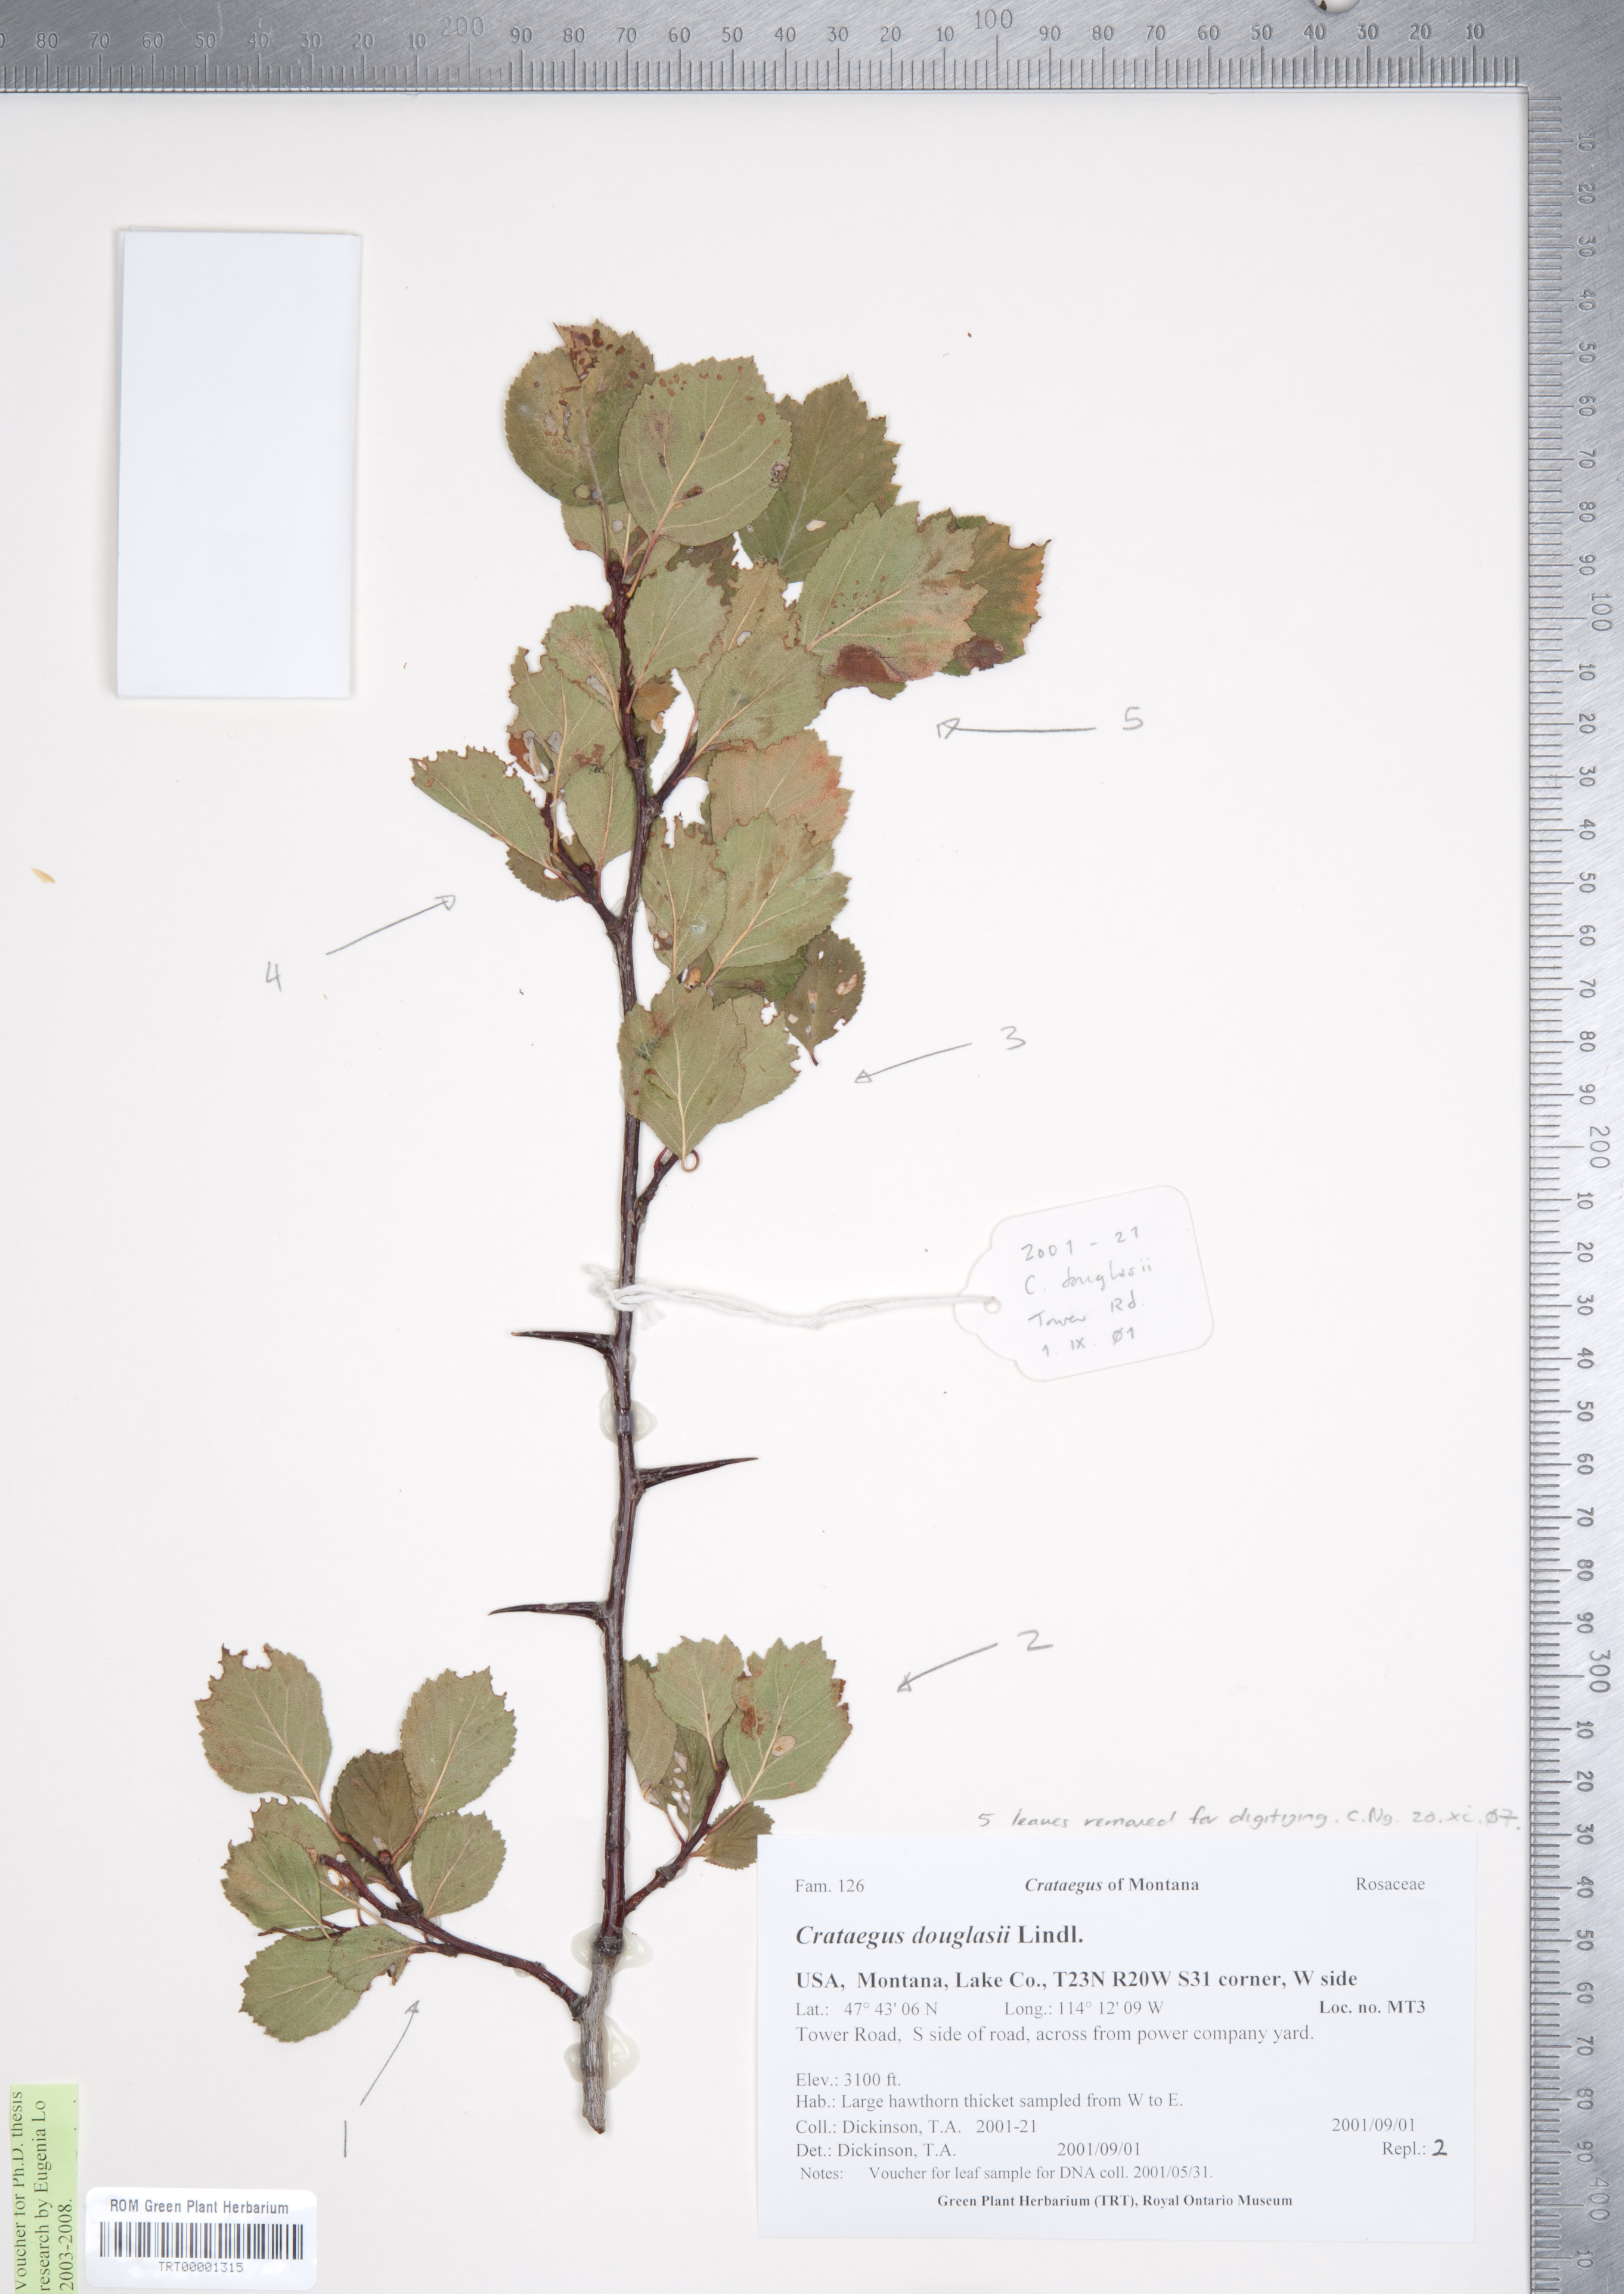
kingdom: Plantae
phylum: Tracheophyta
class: Magnoliopsida
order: Rosales
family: Rosaceae
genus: Crataegus
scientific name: Crataegus douglasii
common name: Black hawthorn
